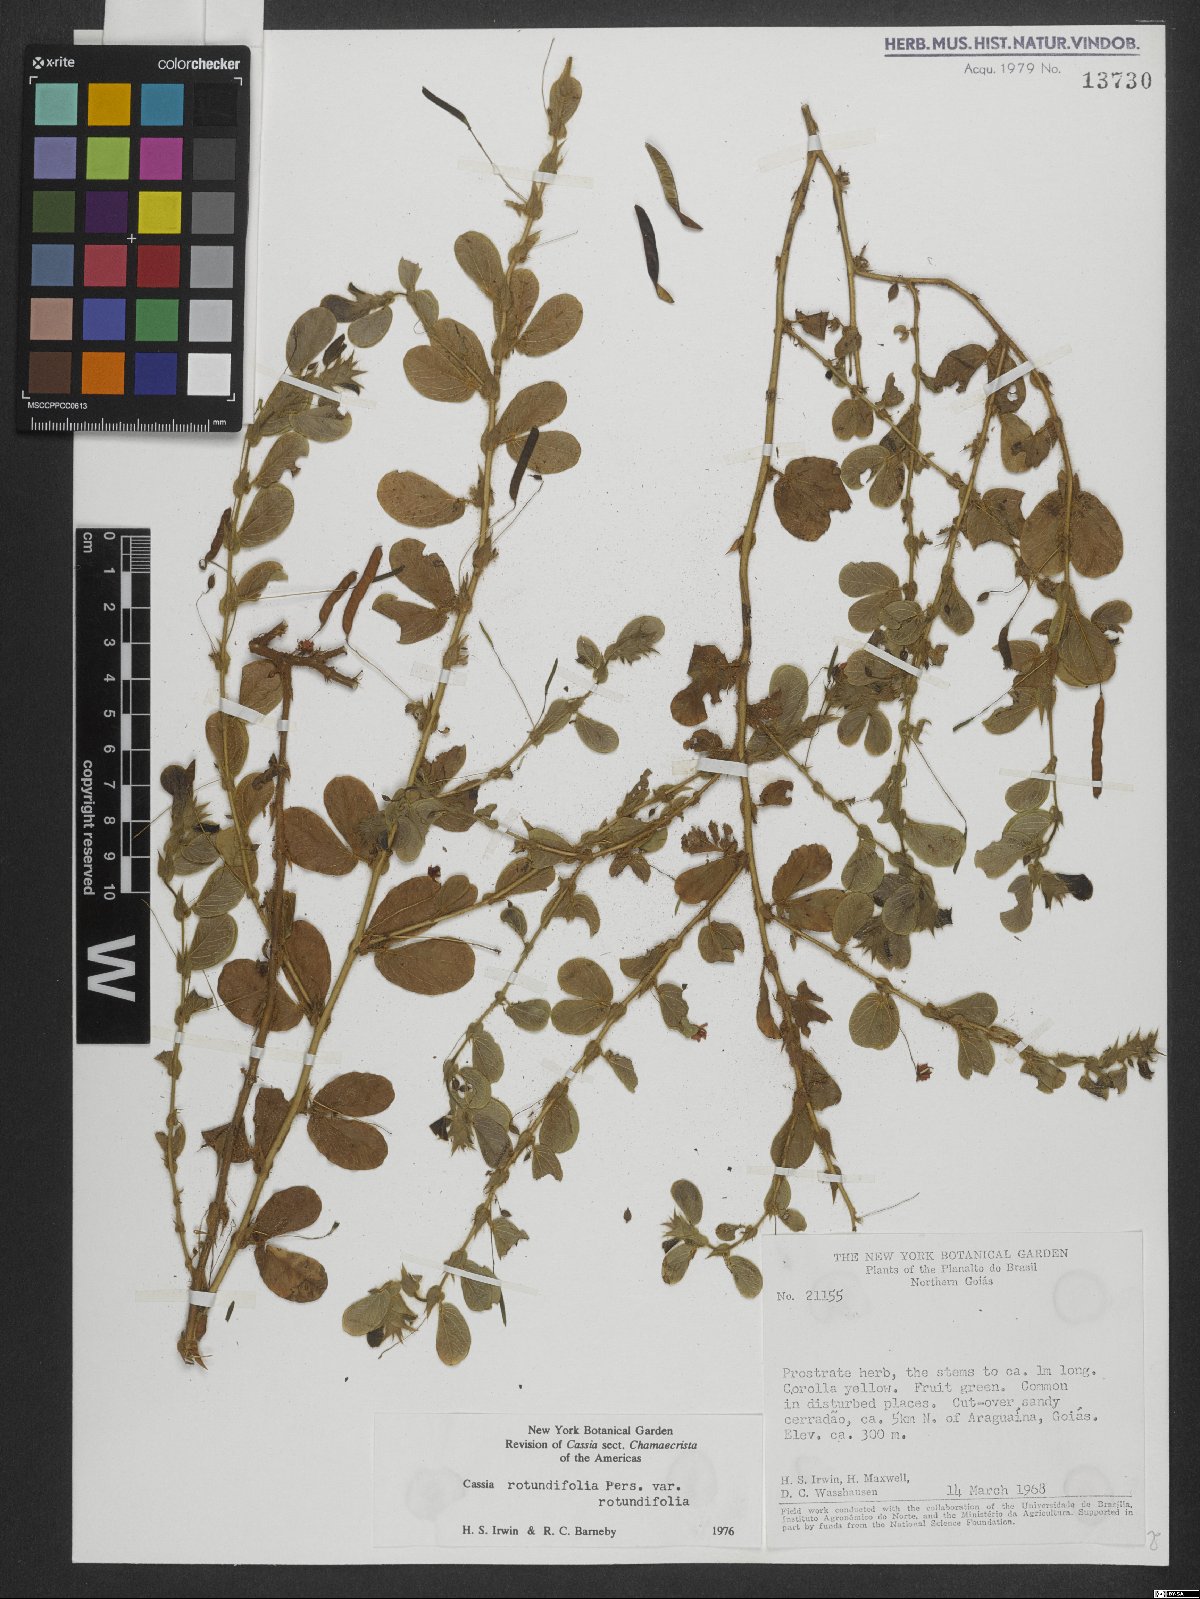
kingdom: Plantae
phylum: Tracheophyta
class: Magnoliopsida
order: Fabales
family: Fabaceae
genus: Chamaecrista
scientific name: Chamaecrista rotundifolia
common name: Round-leaf cassia
